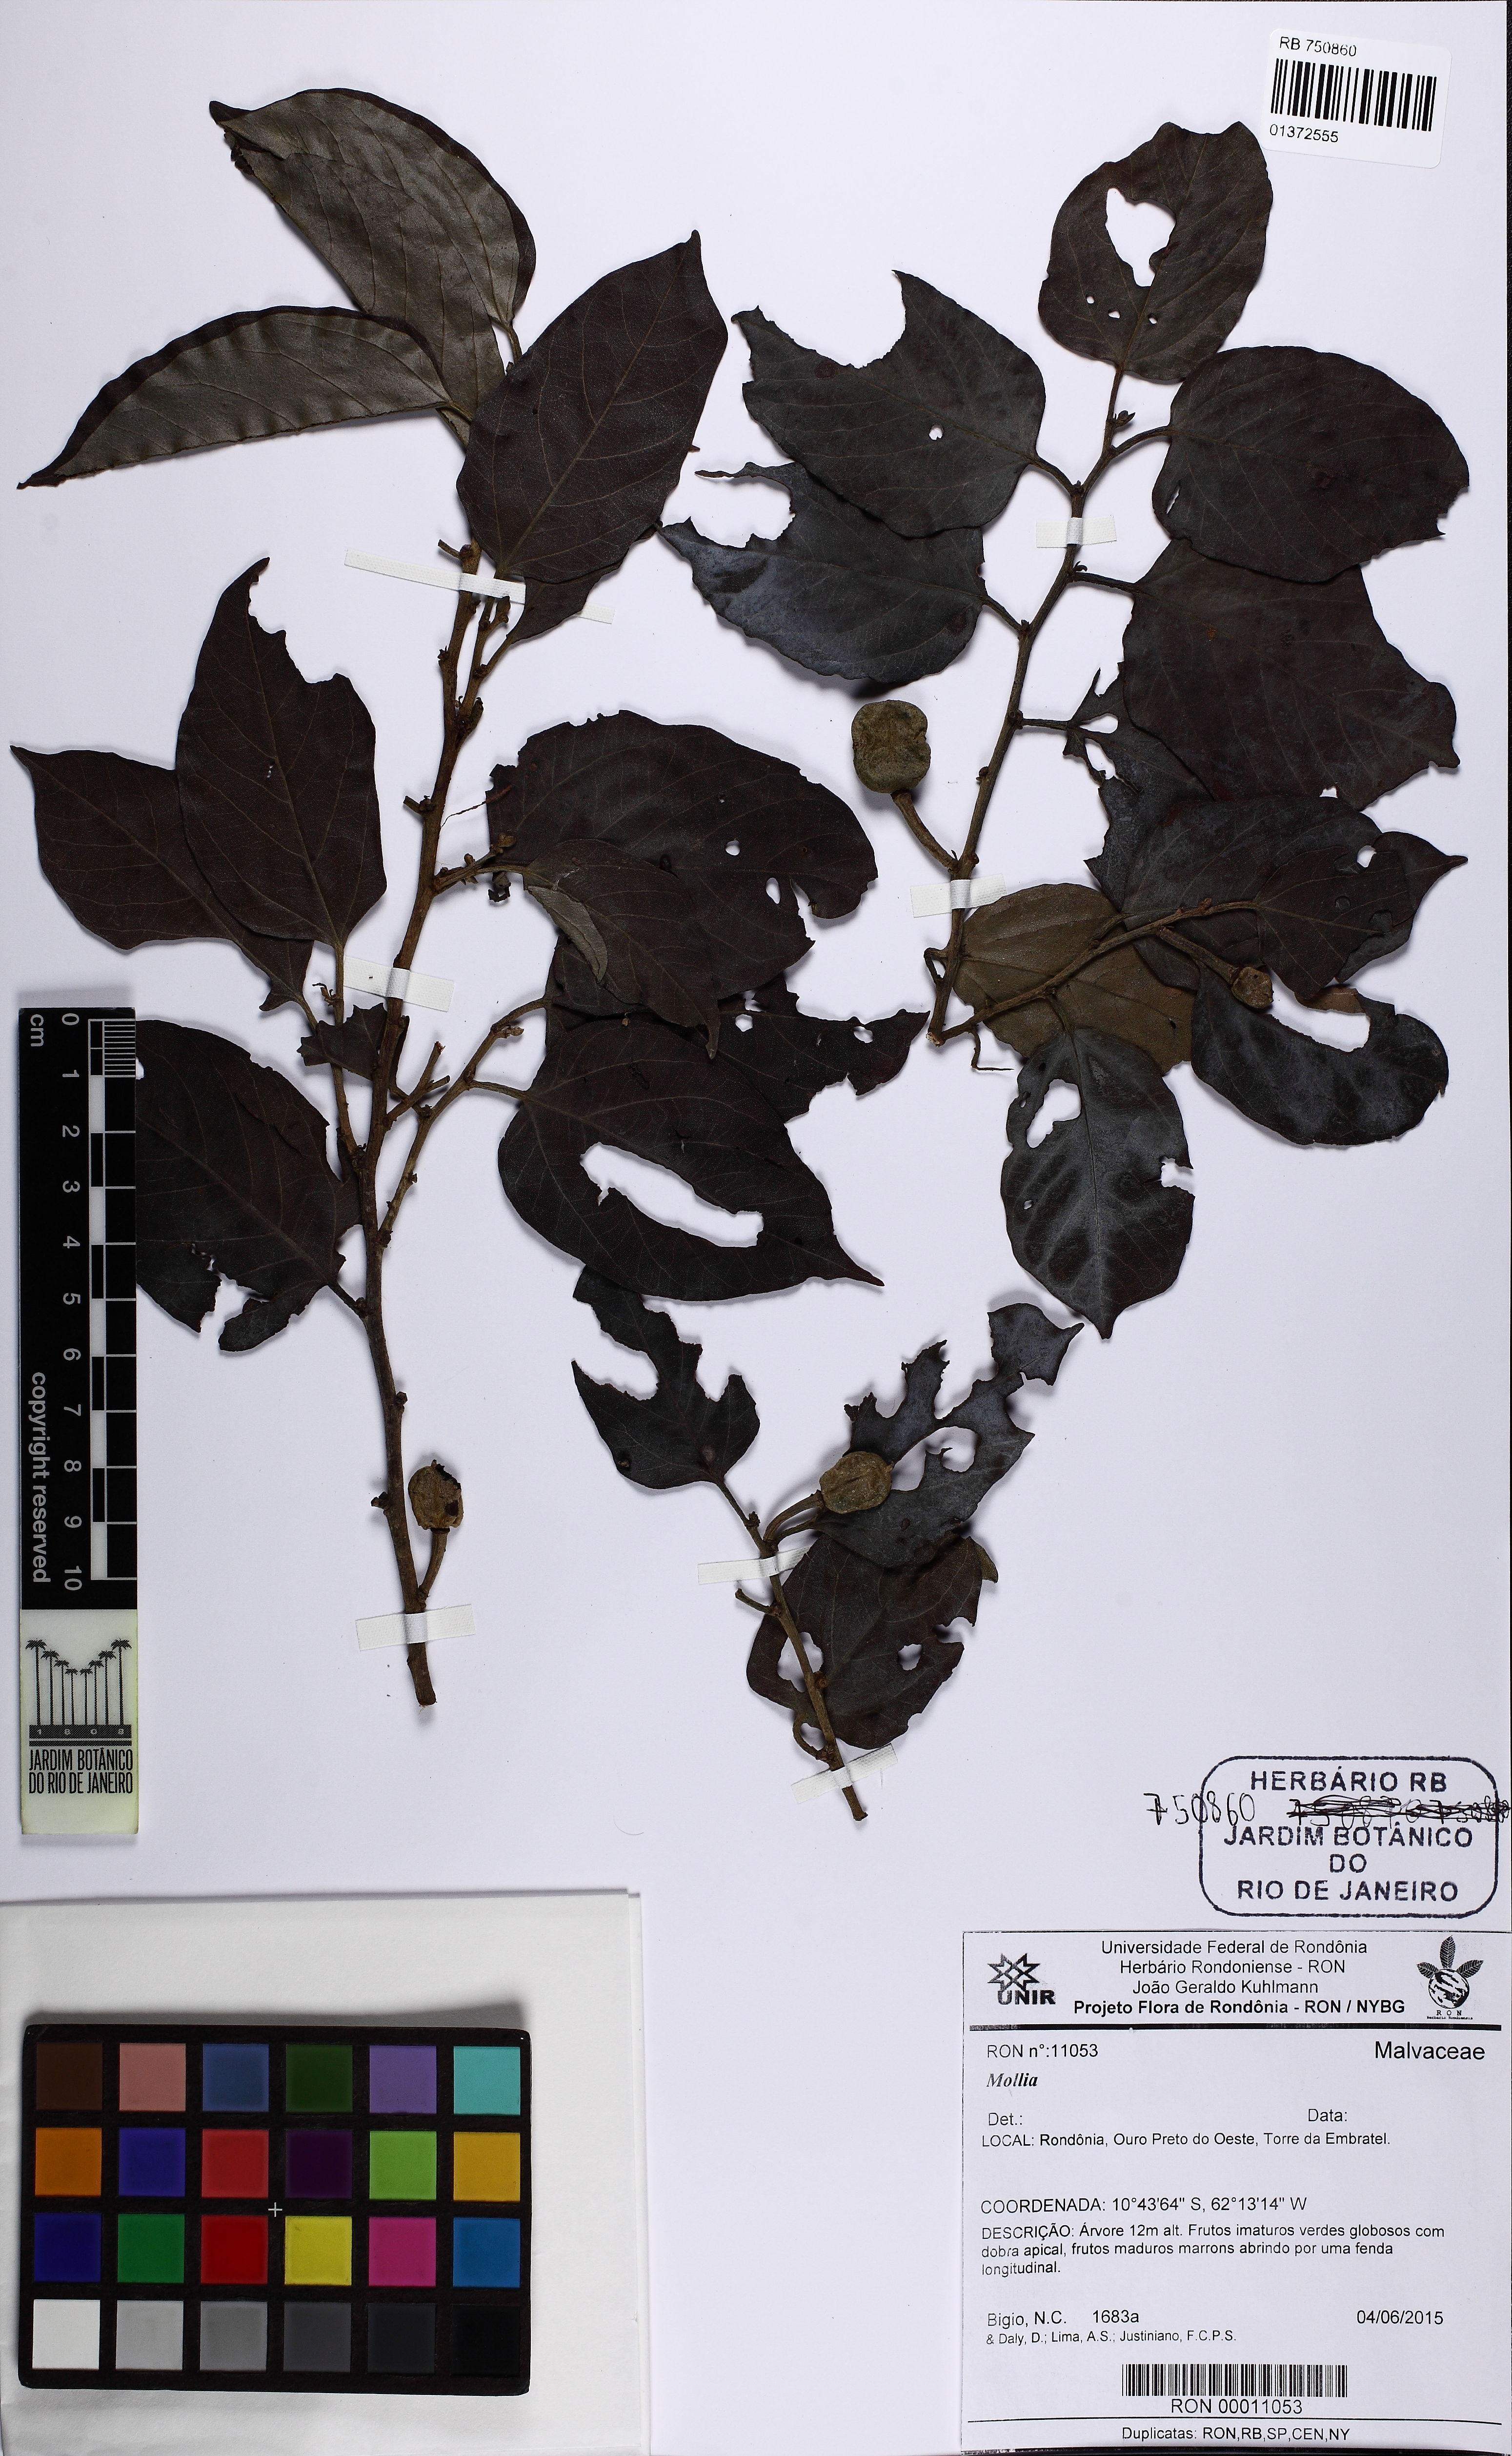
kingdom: Plantae
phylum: Tracheophyta
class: Magnoliopsida
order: Malvales
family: Malvaceae
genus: Mollia
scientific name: Mollia burchellii
